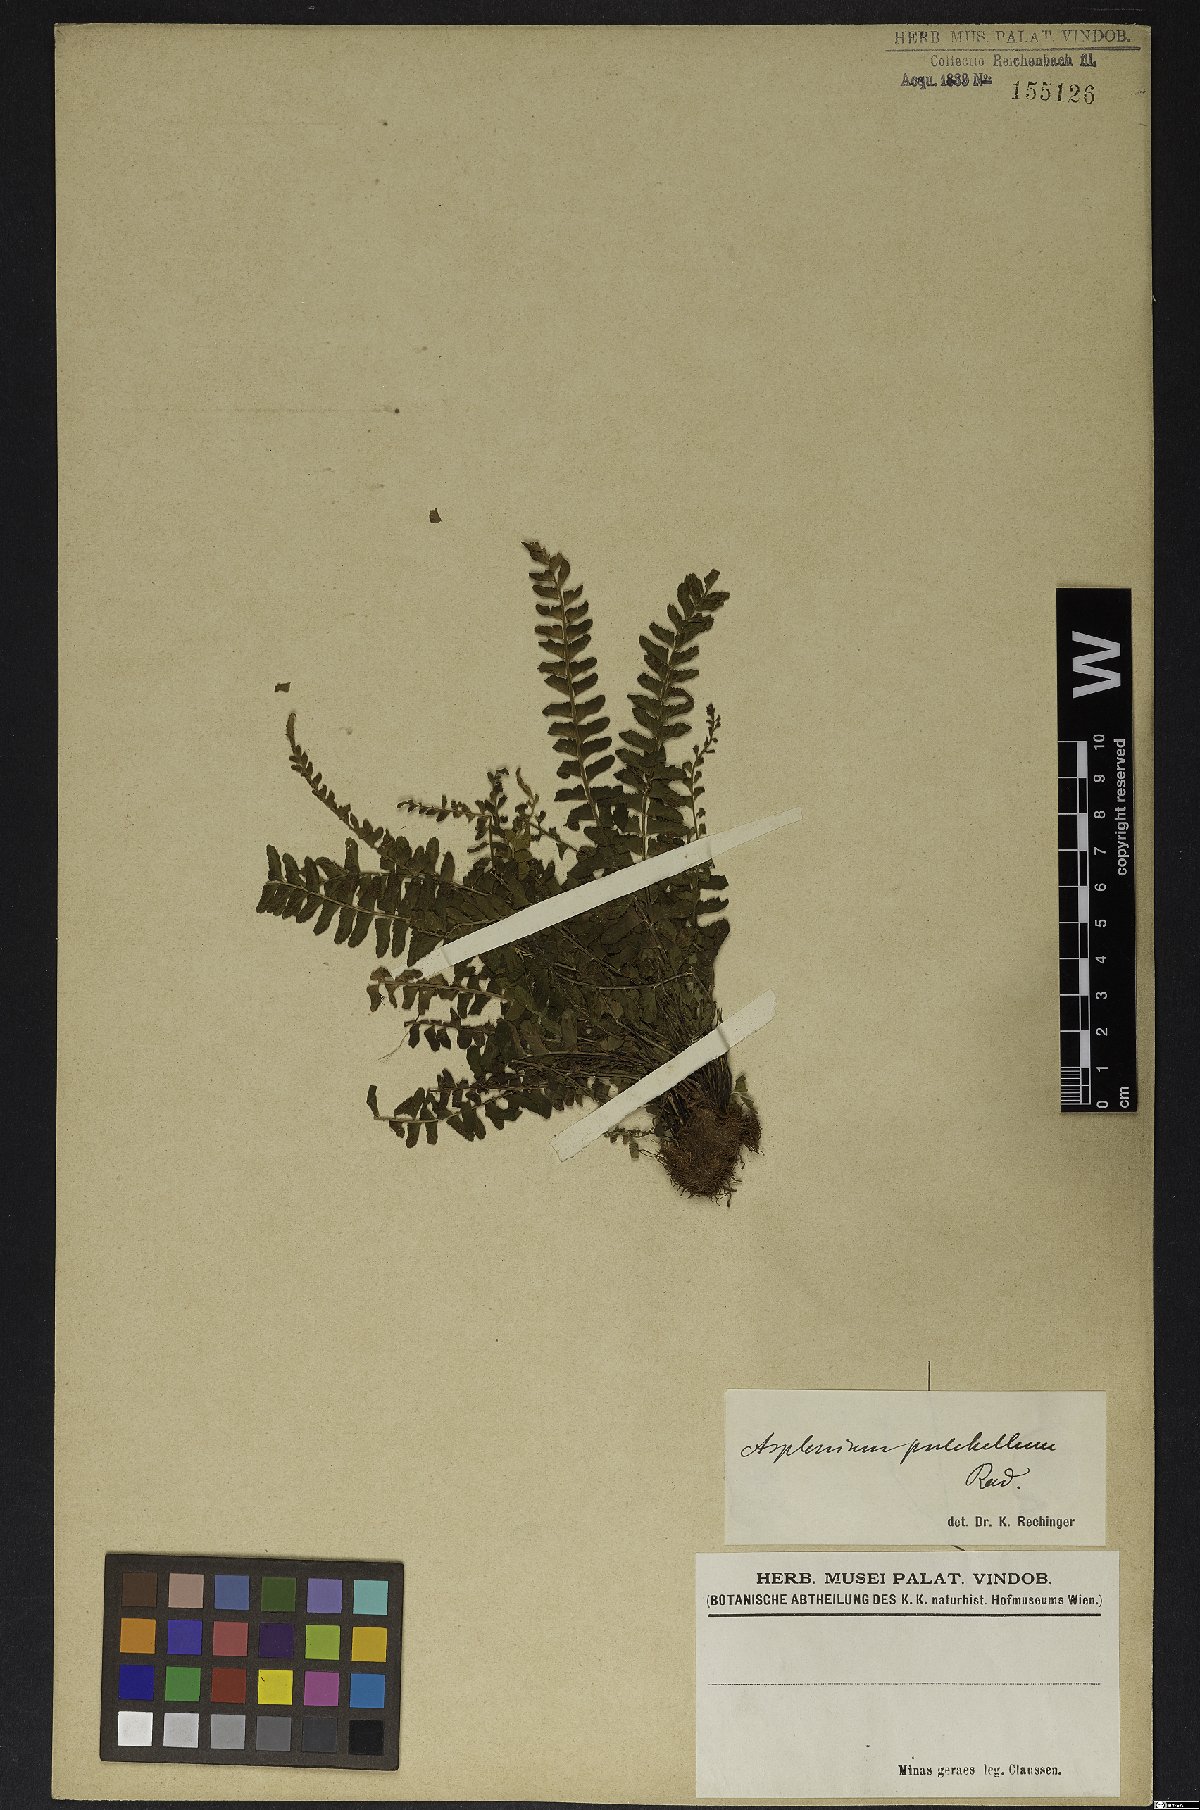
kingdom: Plantae
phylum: Tracheophyta
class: Polypodiopsida
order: Polypodiales
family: Aspleniaceae
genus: Asplenium
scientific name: Asplenium pulchellum
